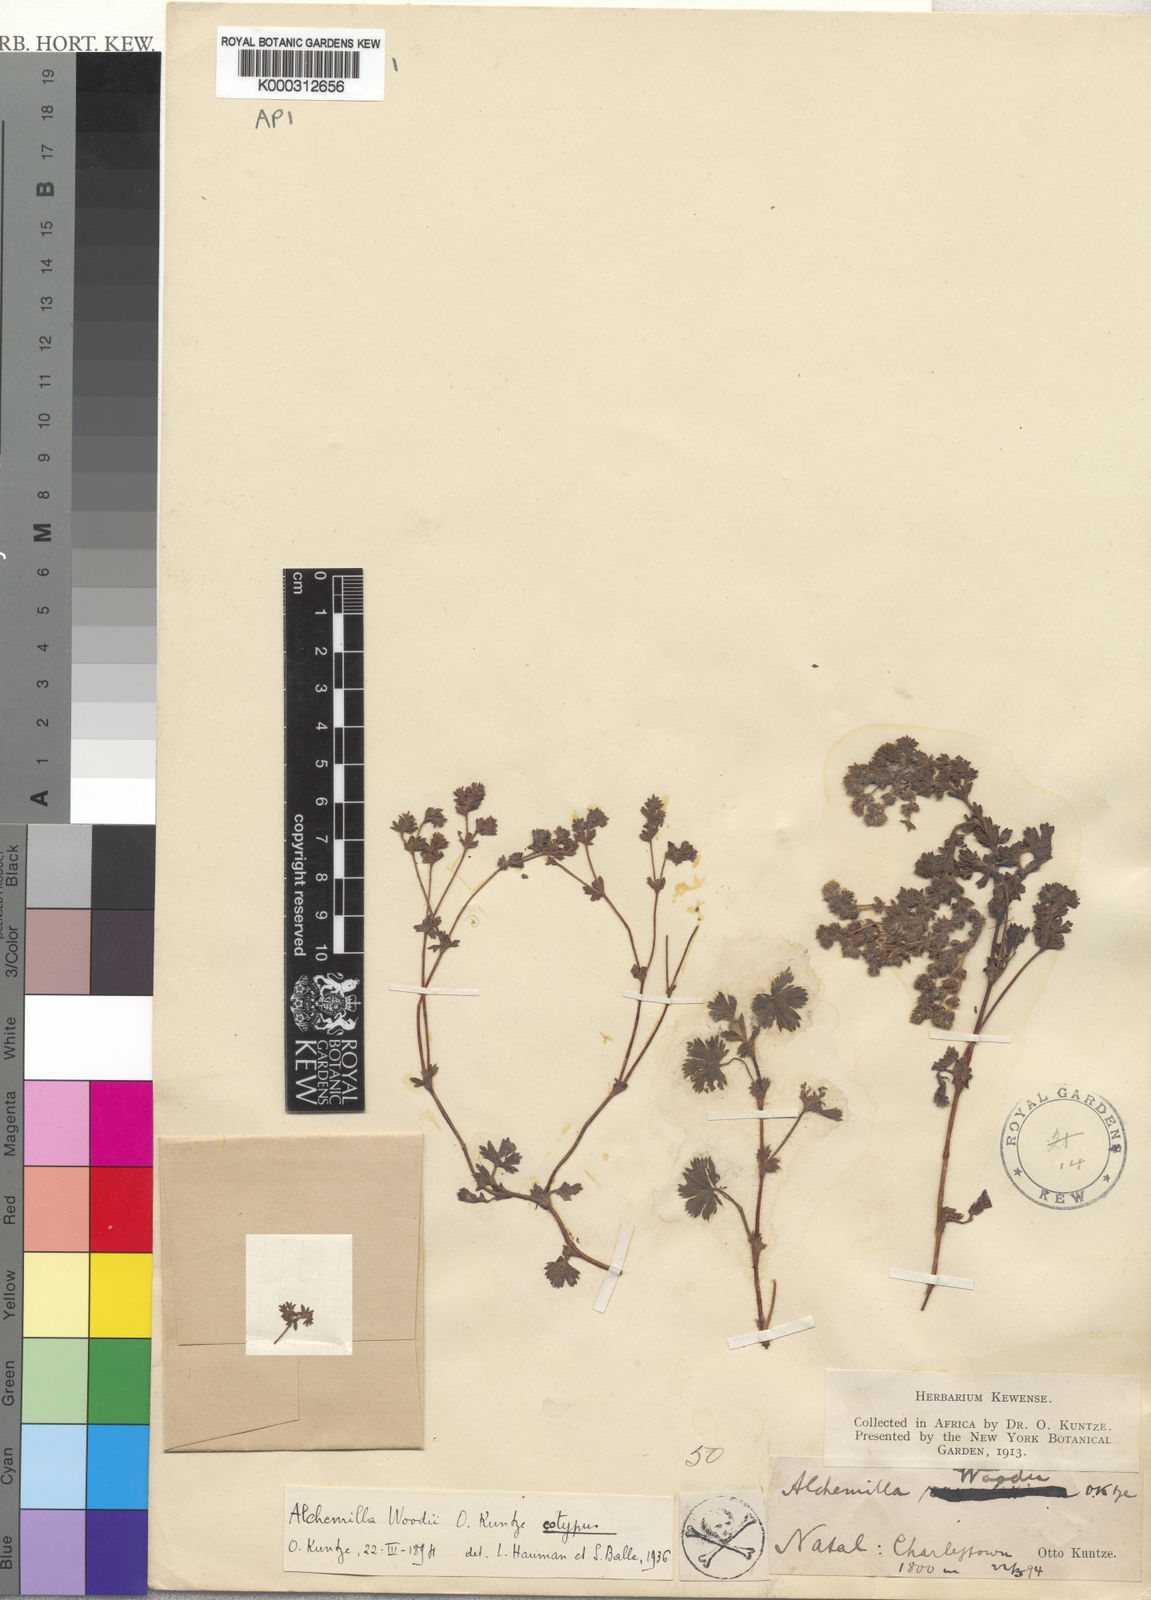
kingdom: Plantae
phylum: Tracheophyta
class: Magnoliopsida
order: Rosales
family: Rosaceae
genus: Alchemilla
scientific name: Alchemilla woodii
